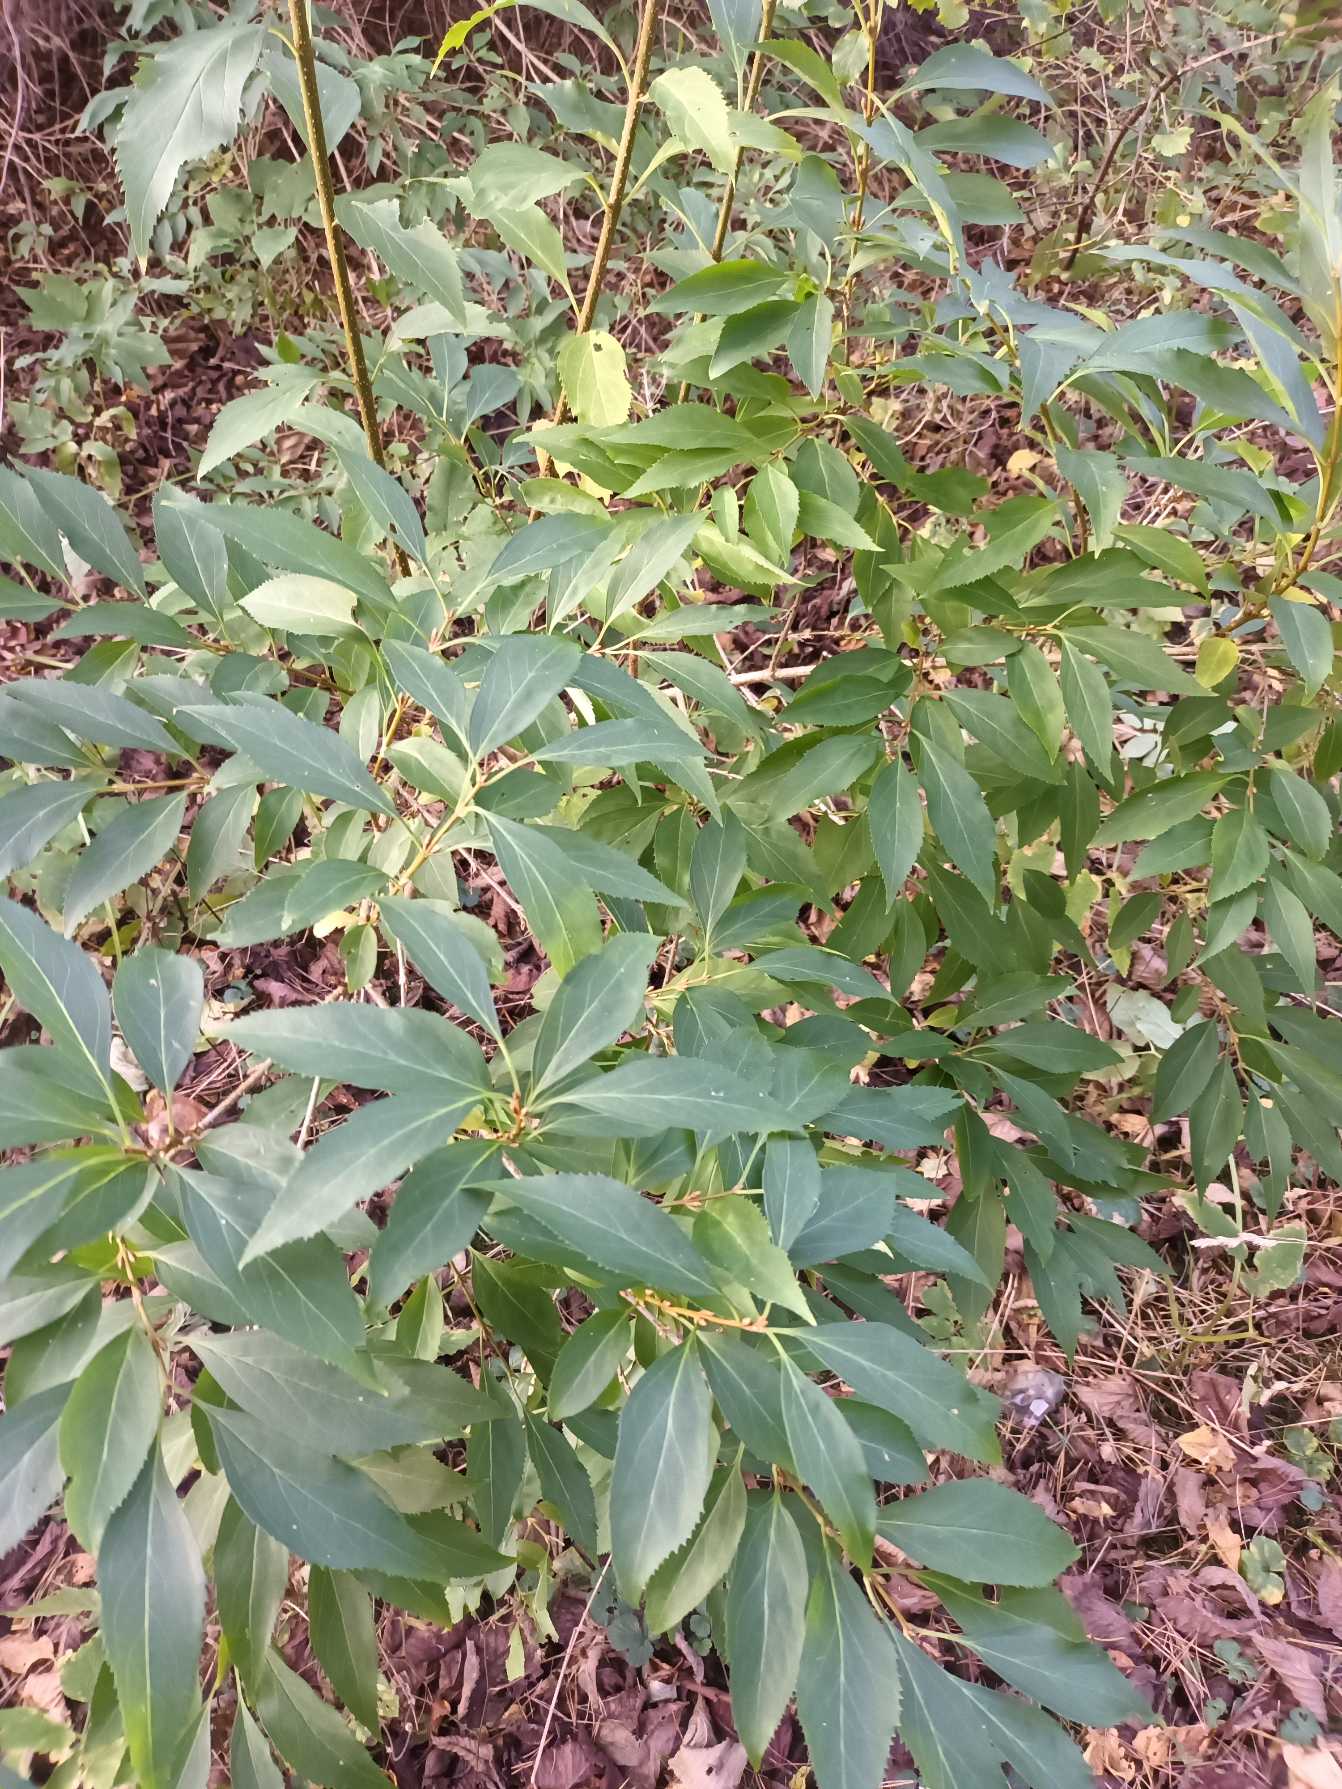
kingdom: Plantae
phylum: Tracheophyta
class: Magnoliopsida
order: Lamiales
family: Oleaceae
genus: Forsythia
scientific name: Forsythia intermedia
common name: Have-forsythia
